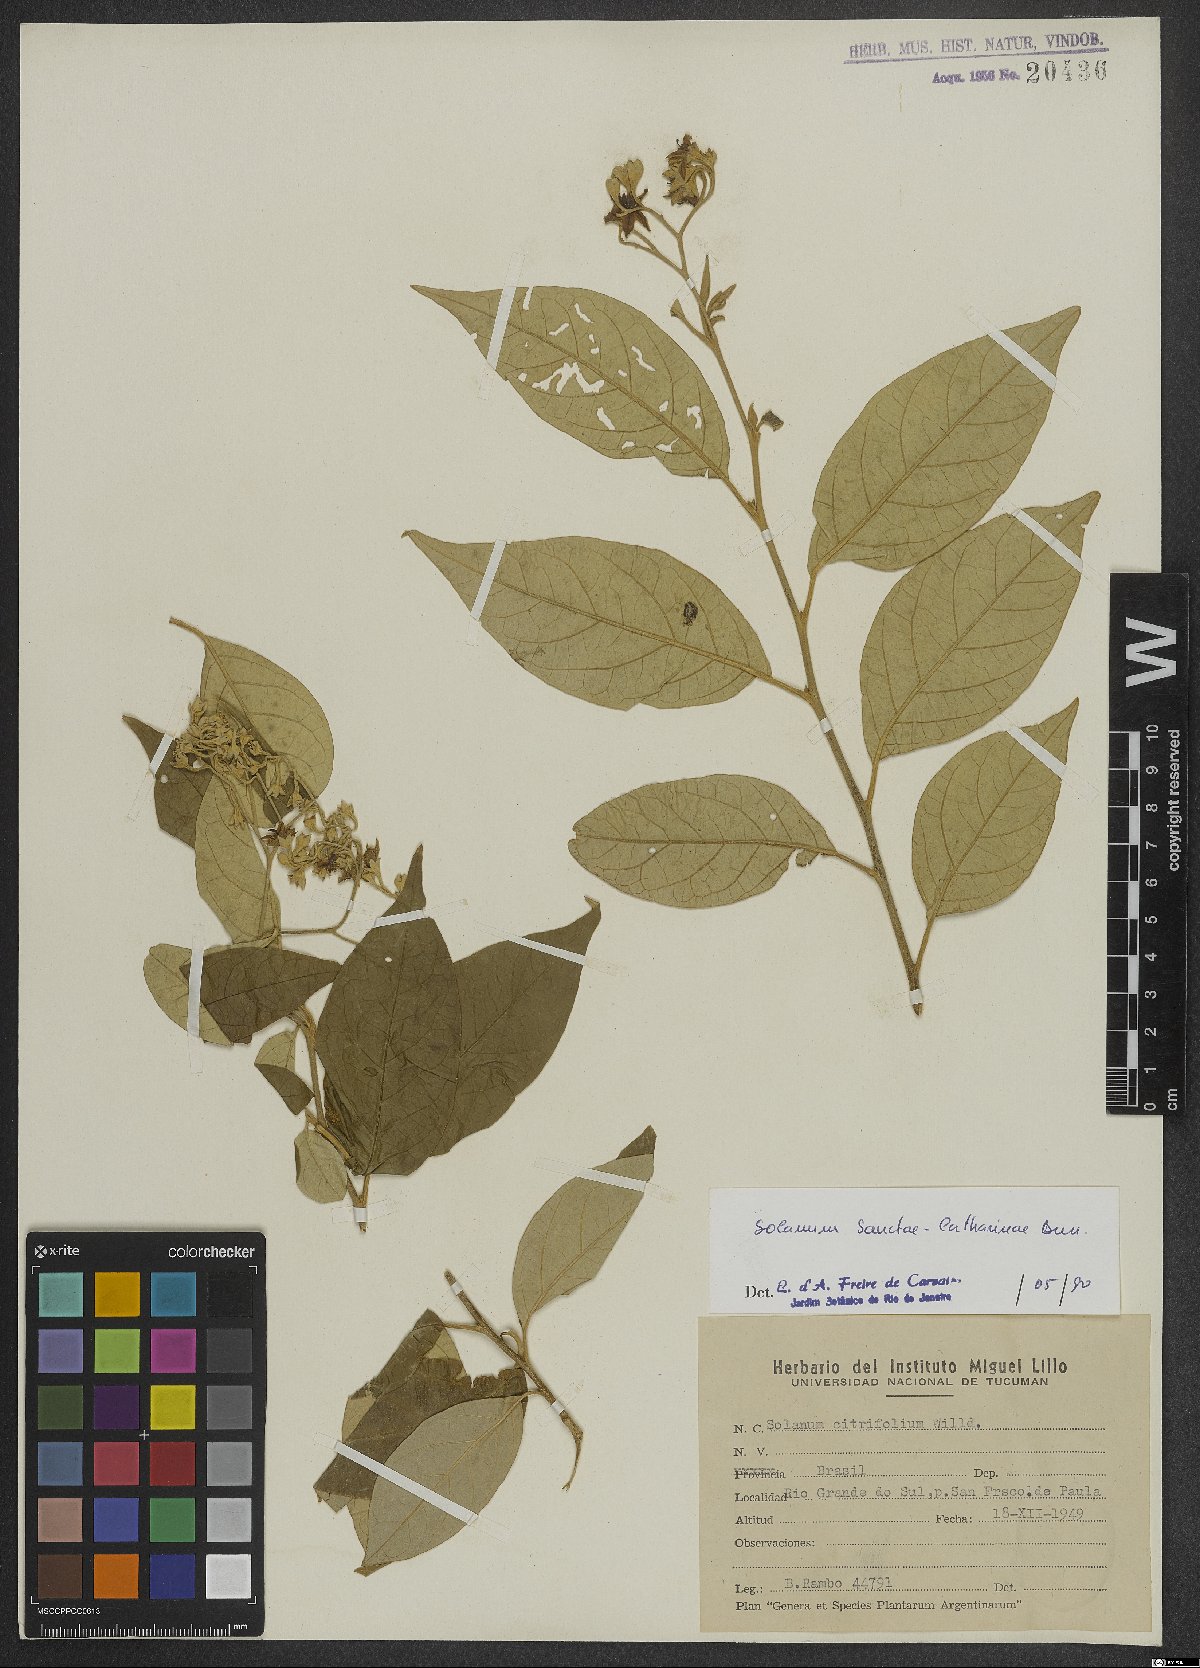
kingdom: Plantae
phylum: Tracheophyta
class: Magnoliopsida
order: Solanales
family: Solanaceae
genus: Solanum
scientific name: Solanum sanctae-catharinae
